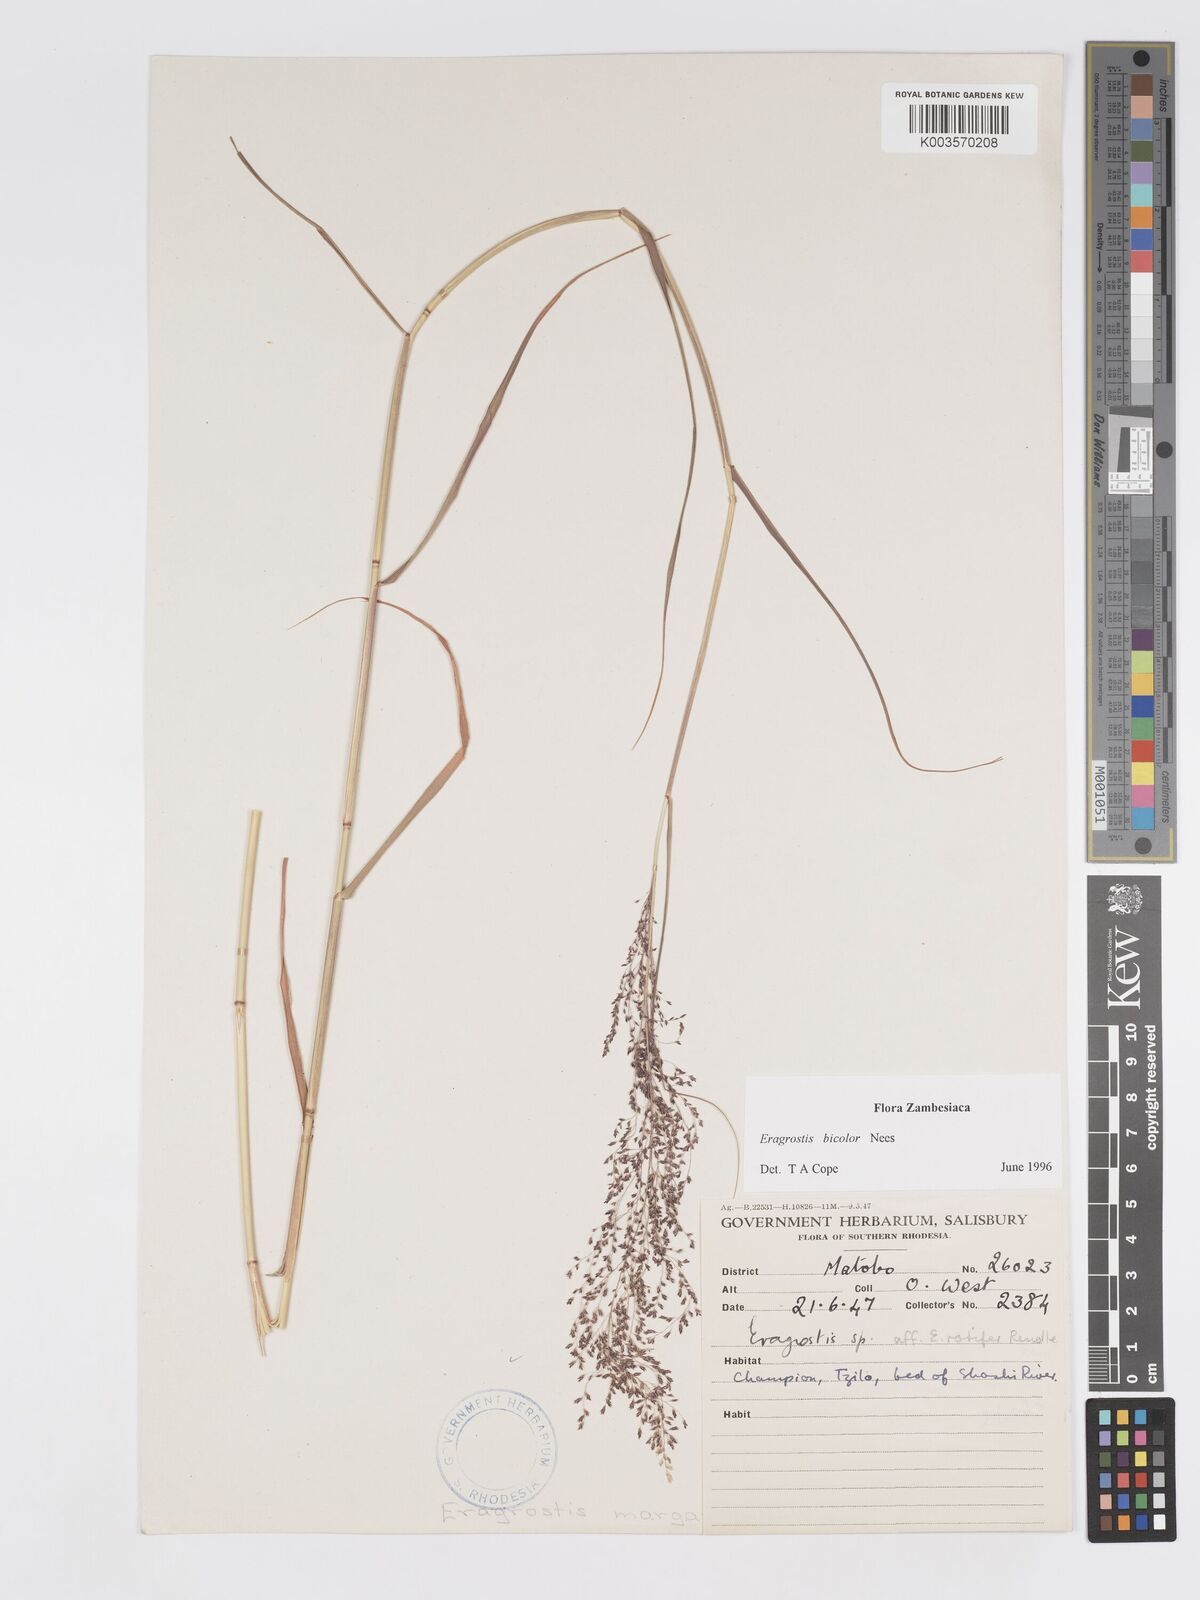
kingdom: Plantae
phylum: Tracheophyta
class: Liliopsida
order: Poales
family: Poaceae
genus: Eragrostis
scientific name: Eragrostis bicolor
